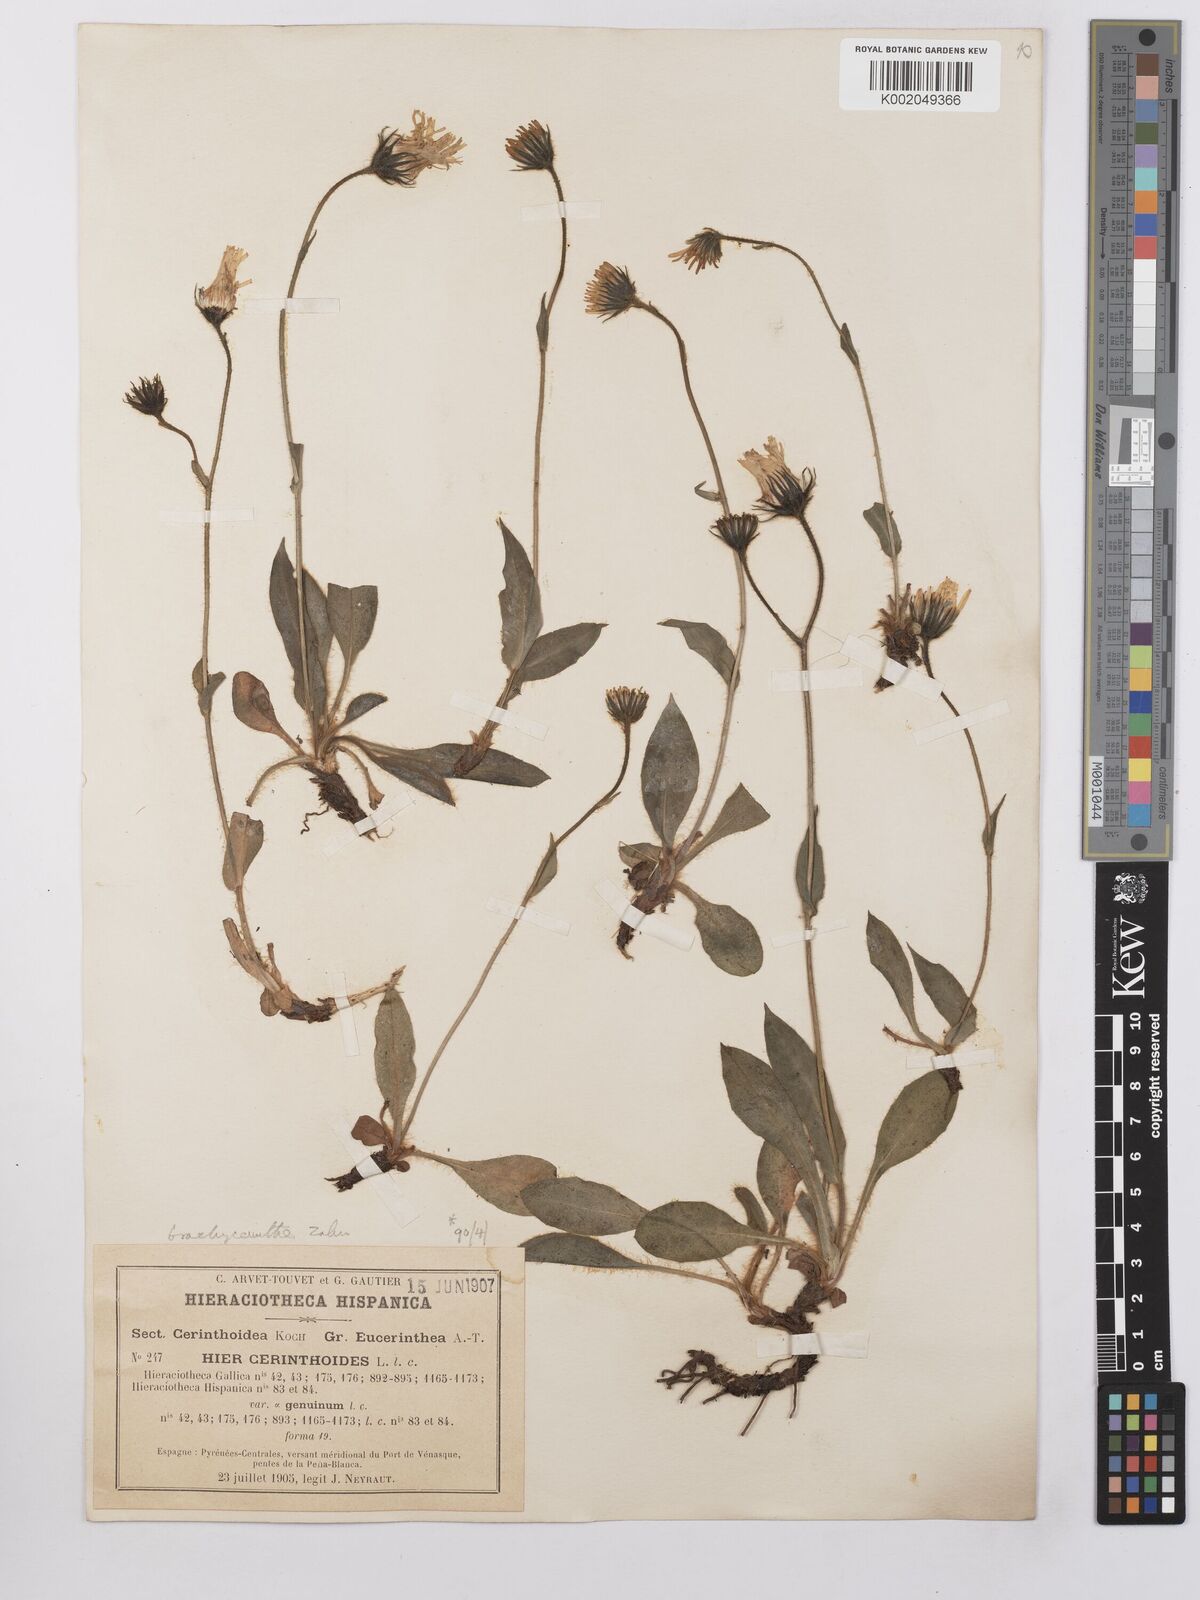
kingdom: Plantae
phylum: Tracheophyta
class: Magnoliopsida
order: Asterales
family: Asteraceae
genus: Hieracium
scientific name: Hieracium cerinthoides
